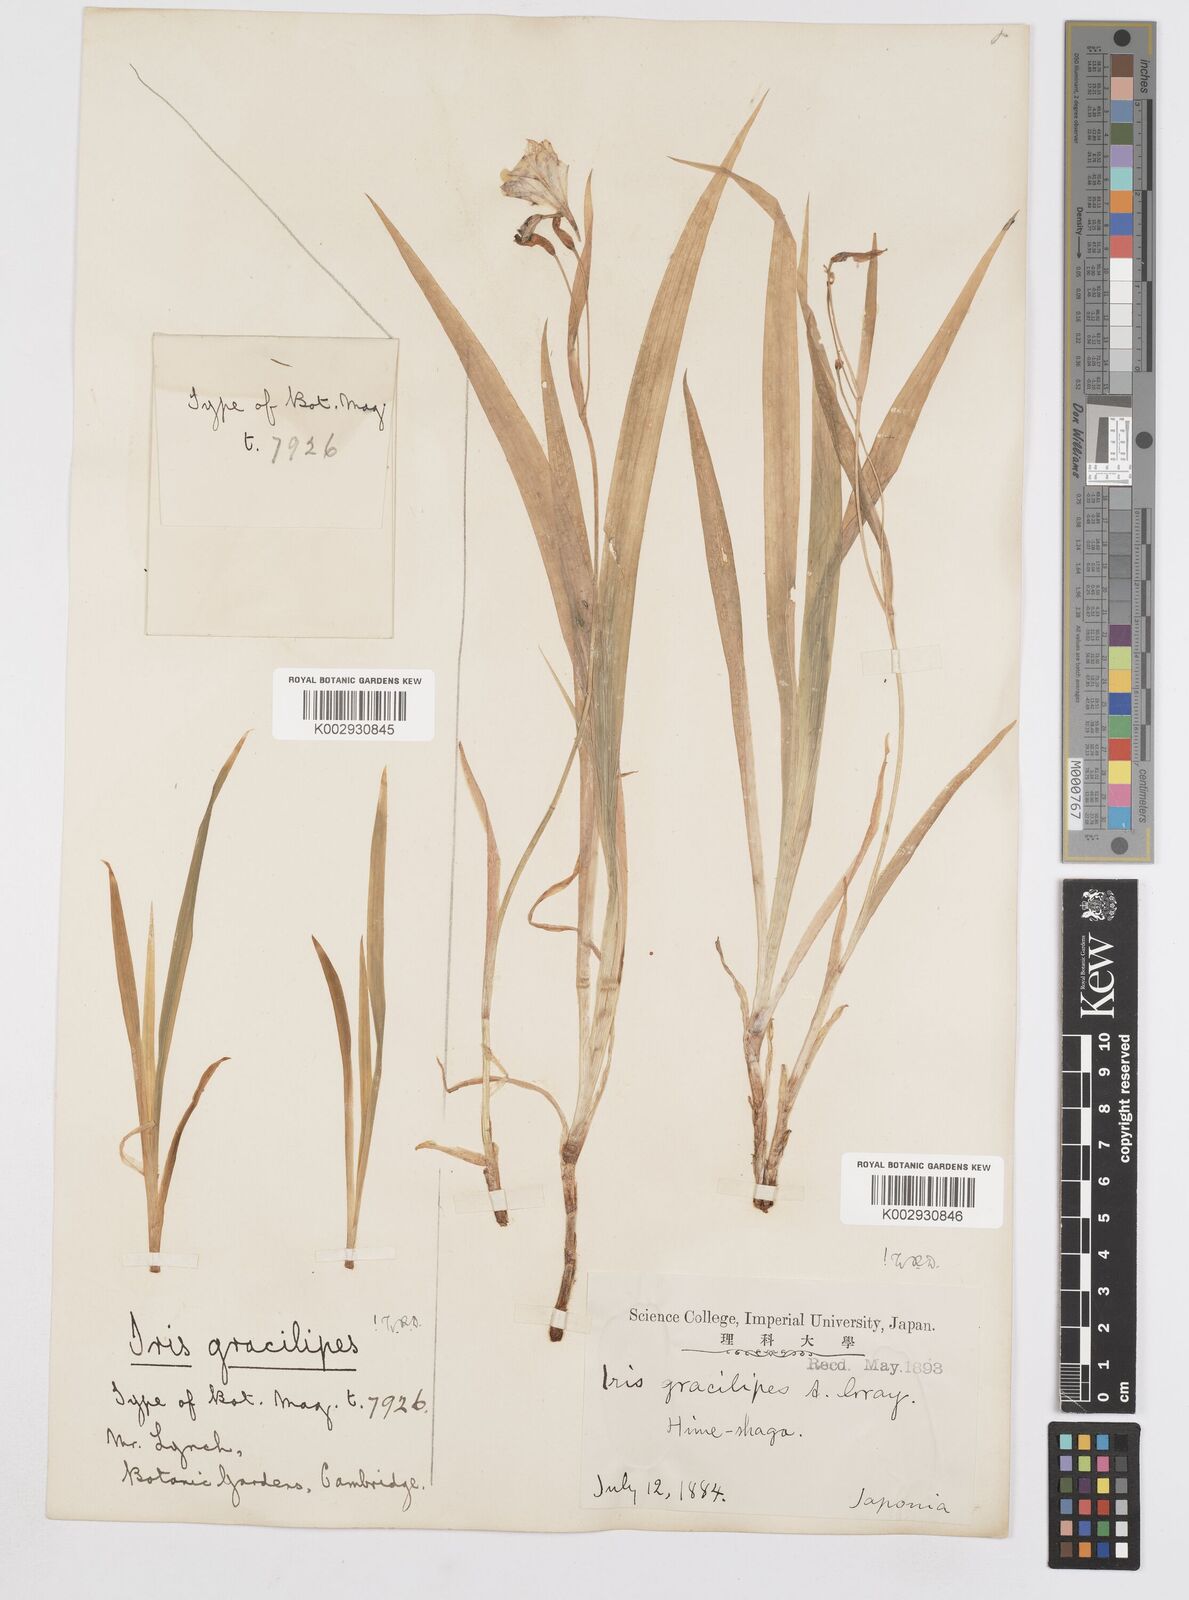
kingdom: Plantae
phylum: Tracheophyta
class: Liliopsida
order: Asparagales
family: Iridaceae
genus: Iris
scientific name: Iris gracilipes
